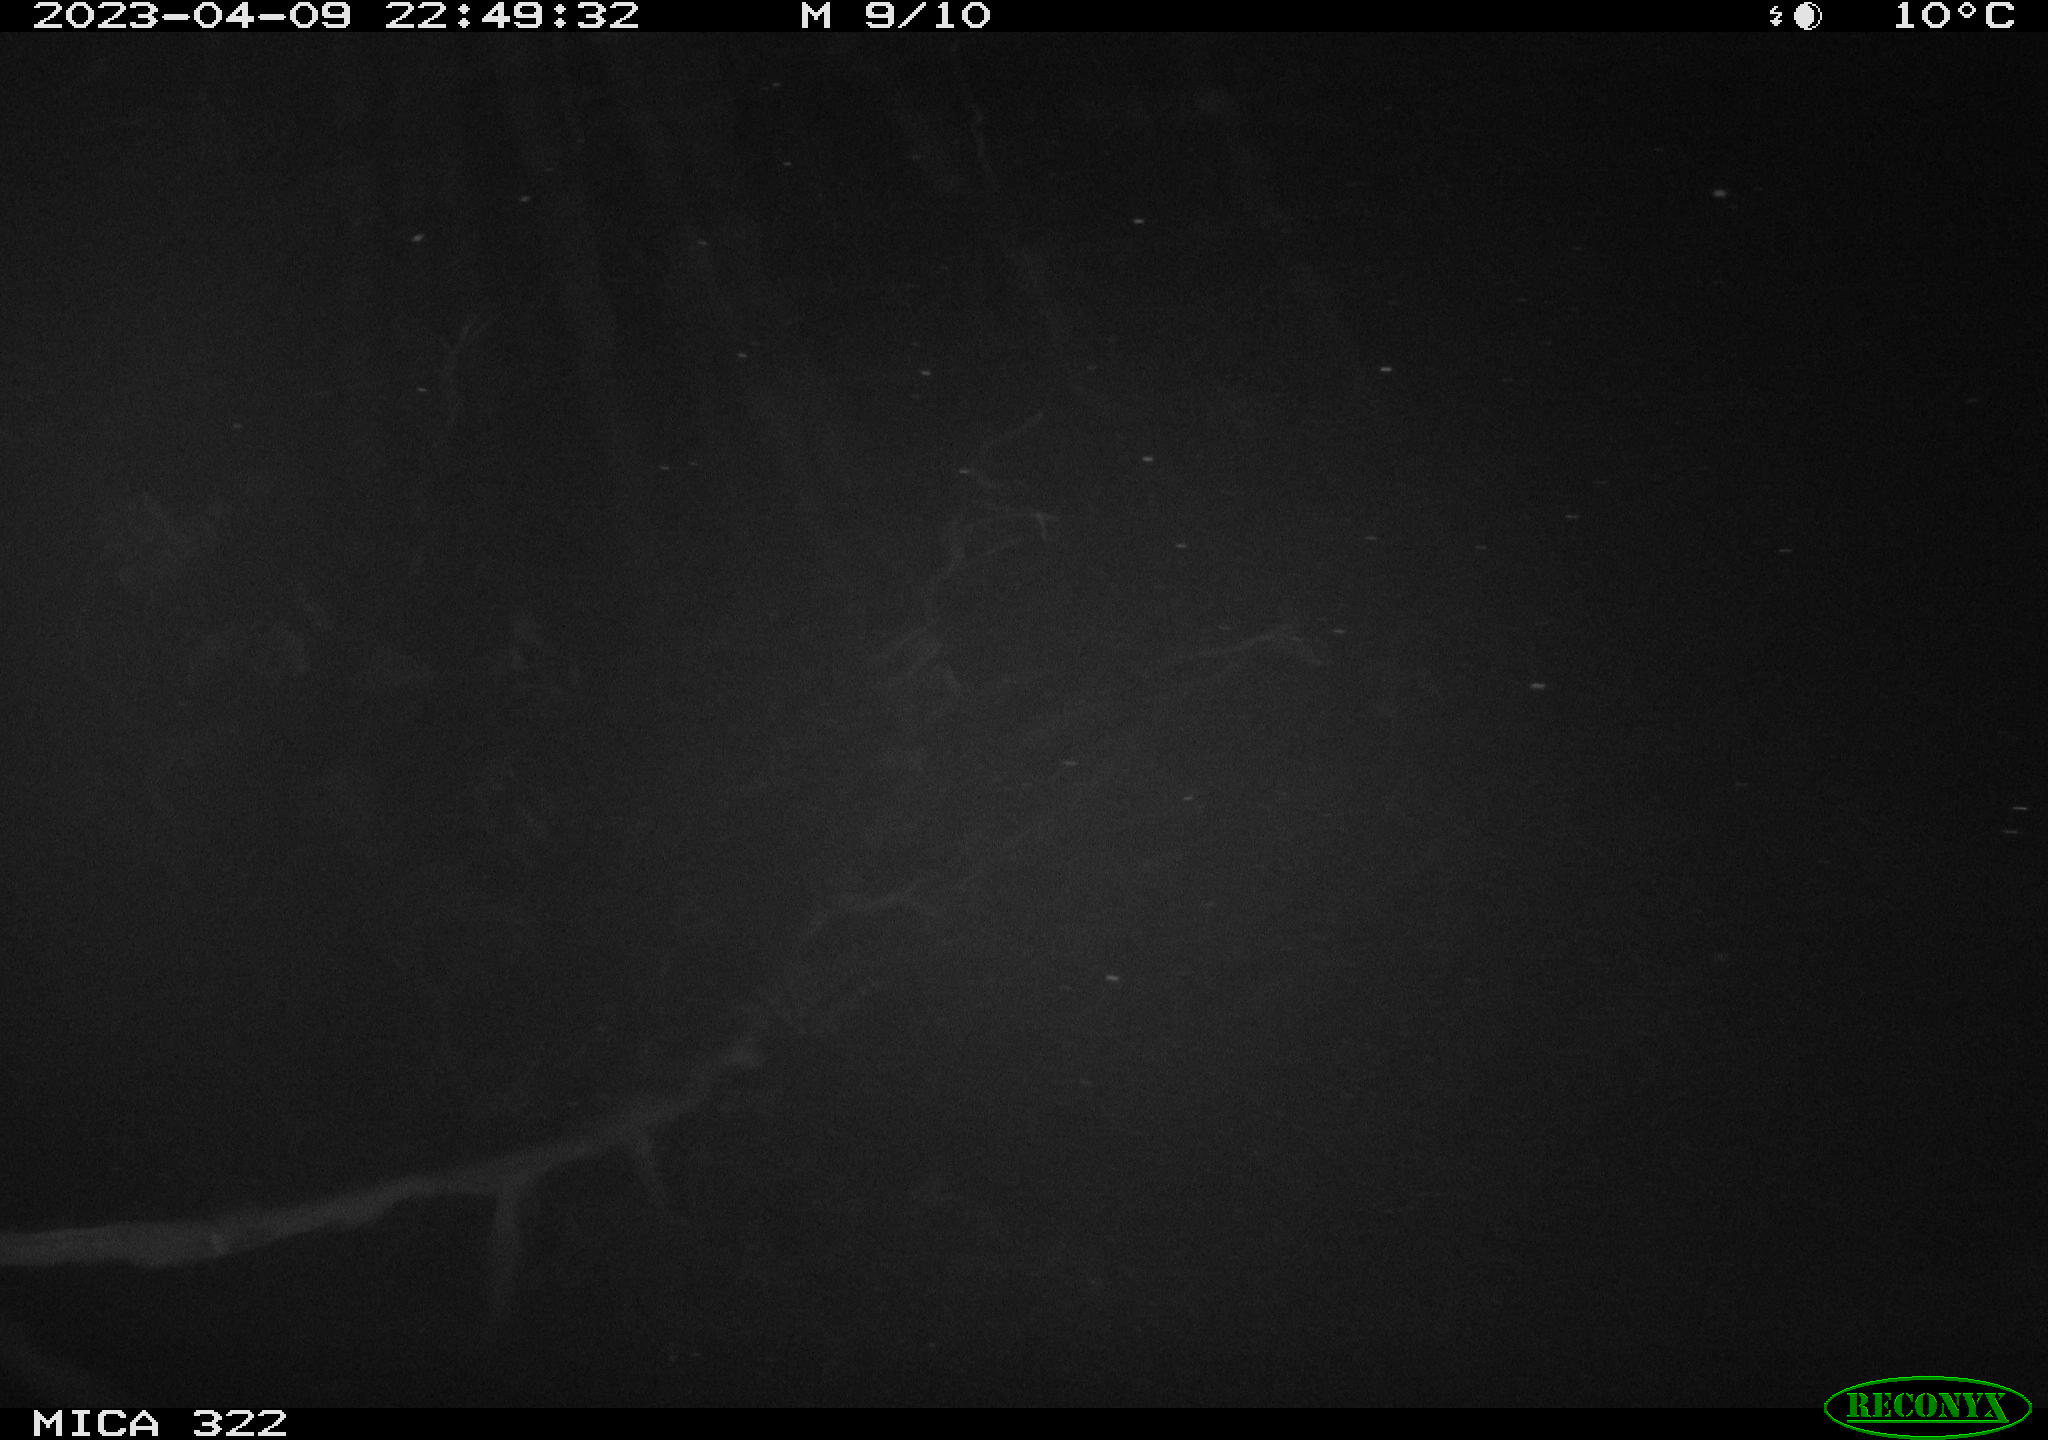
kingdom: Animalia
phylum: Chordata
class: Mammalia
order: Rodentia
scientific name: Rodentia
